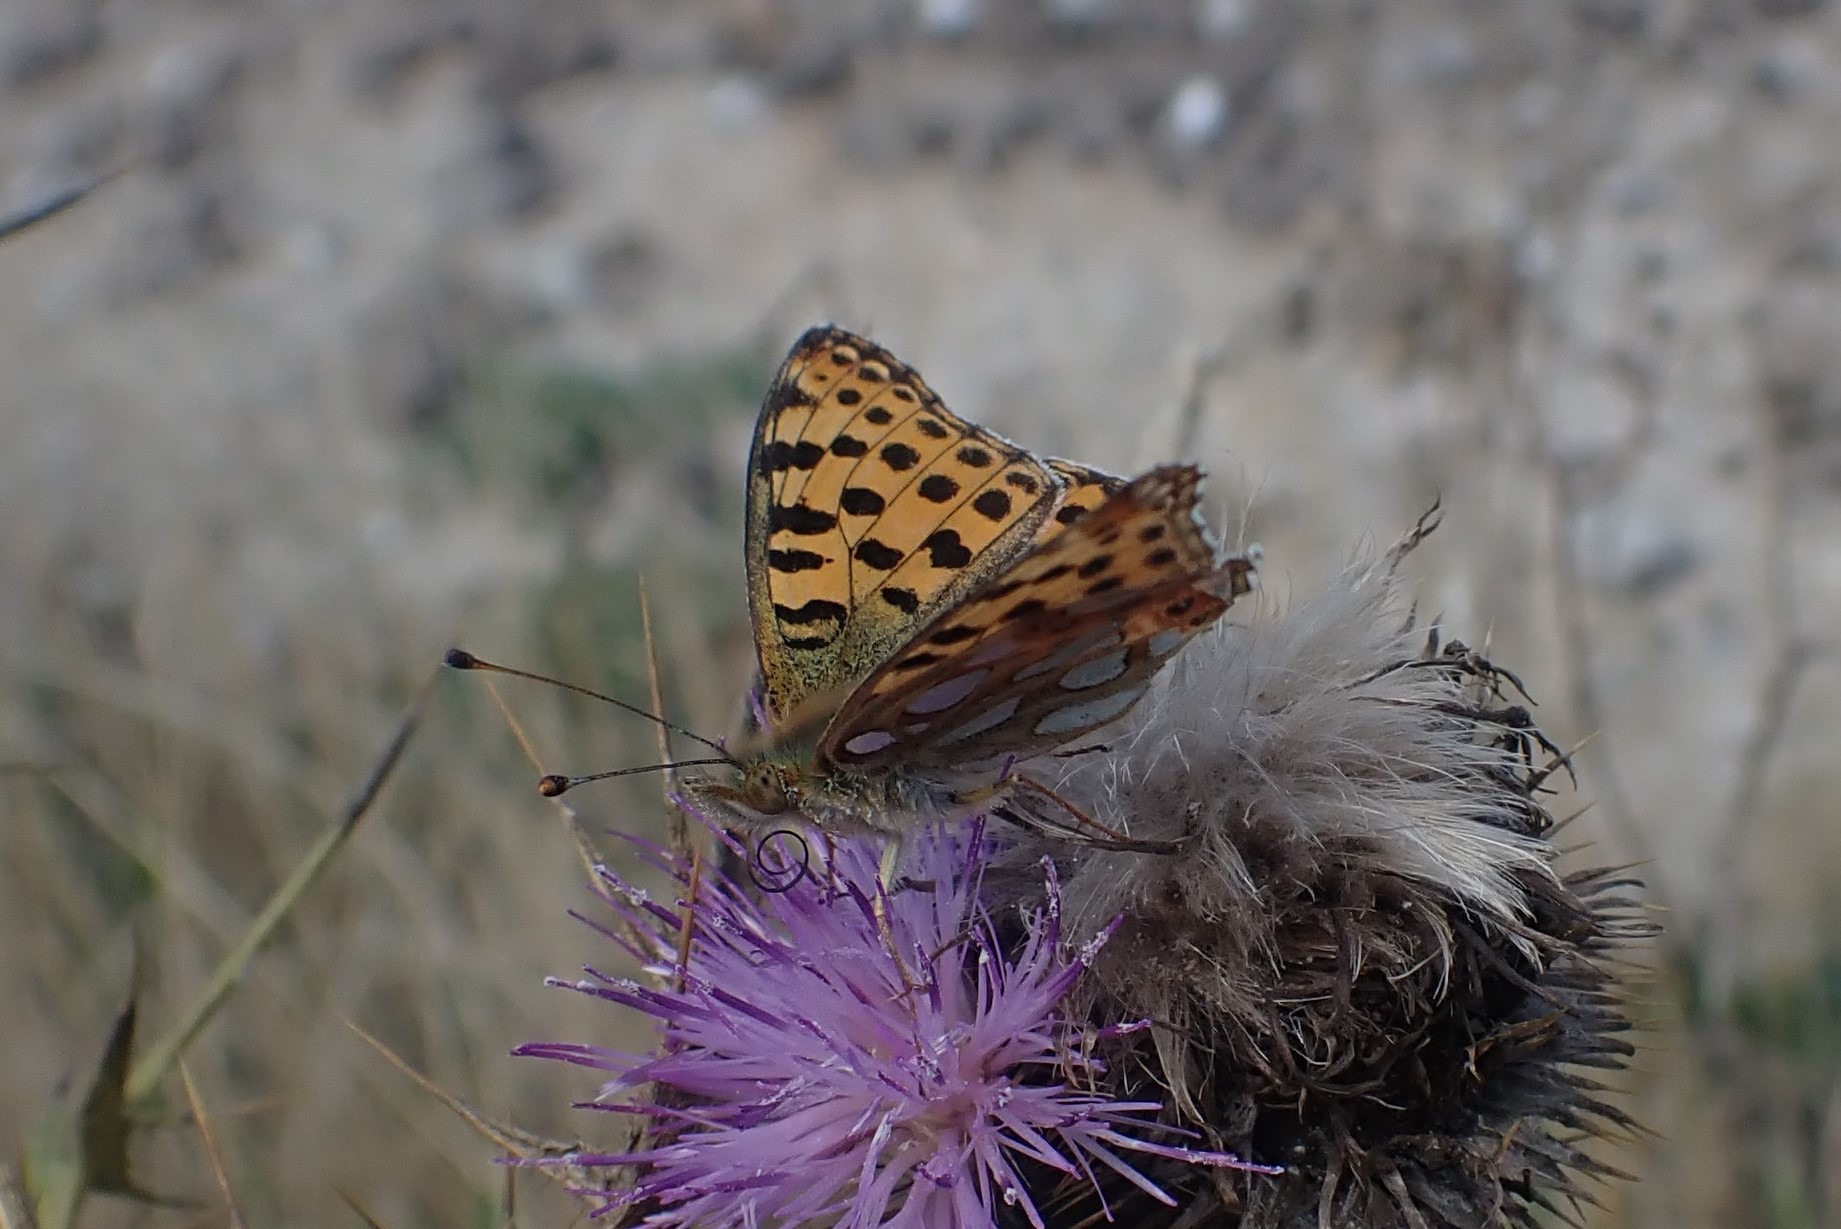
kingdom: Animalia
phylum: Arthropoda
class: Insecta
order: Lepidoptera
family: Nymphalidae
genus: Issoria
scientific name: Issoria lathonia
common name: Storplettet perlemorsommerfugl
